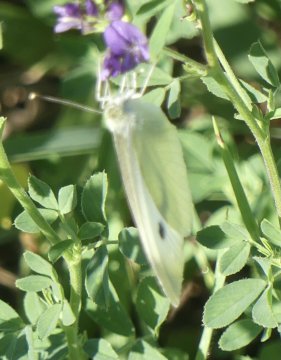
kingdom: Animalia
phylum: Arthropoda
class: Insecta
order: Lepidoptera
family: Pieridae
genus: Pieris
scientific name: Pieris rapae
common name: Cabbage White
